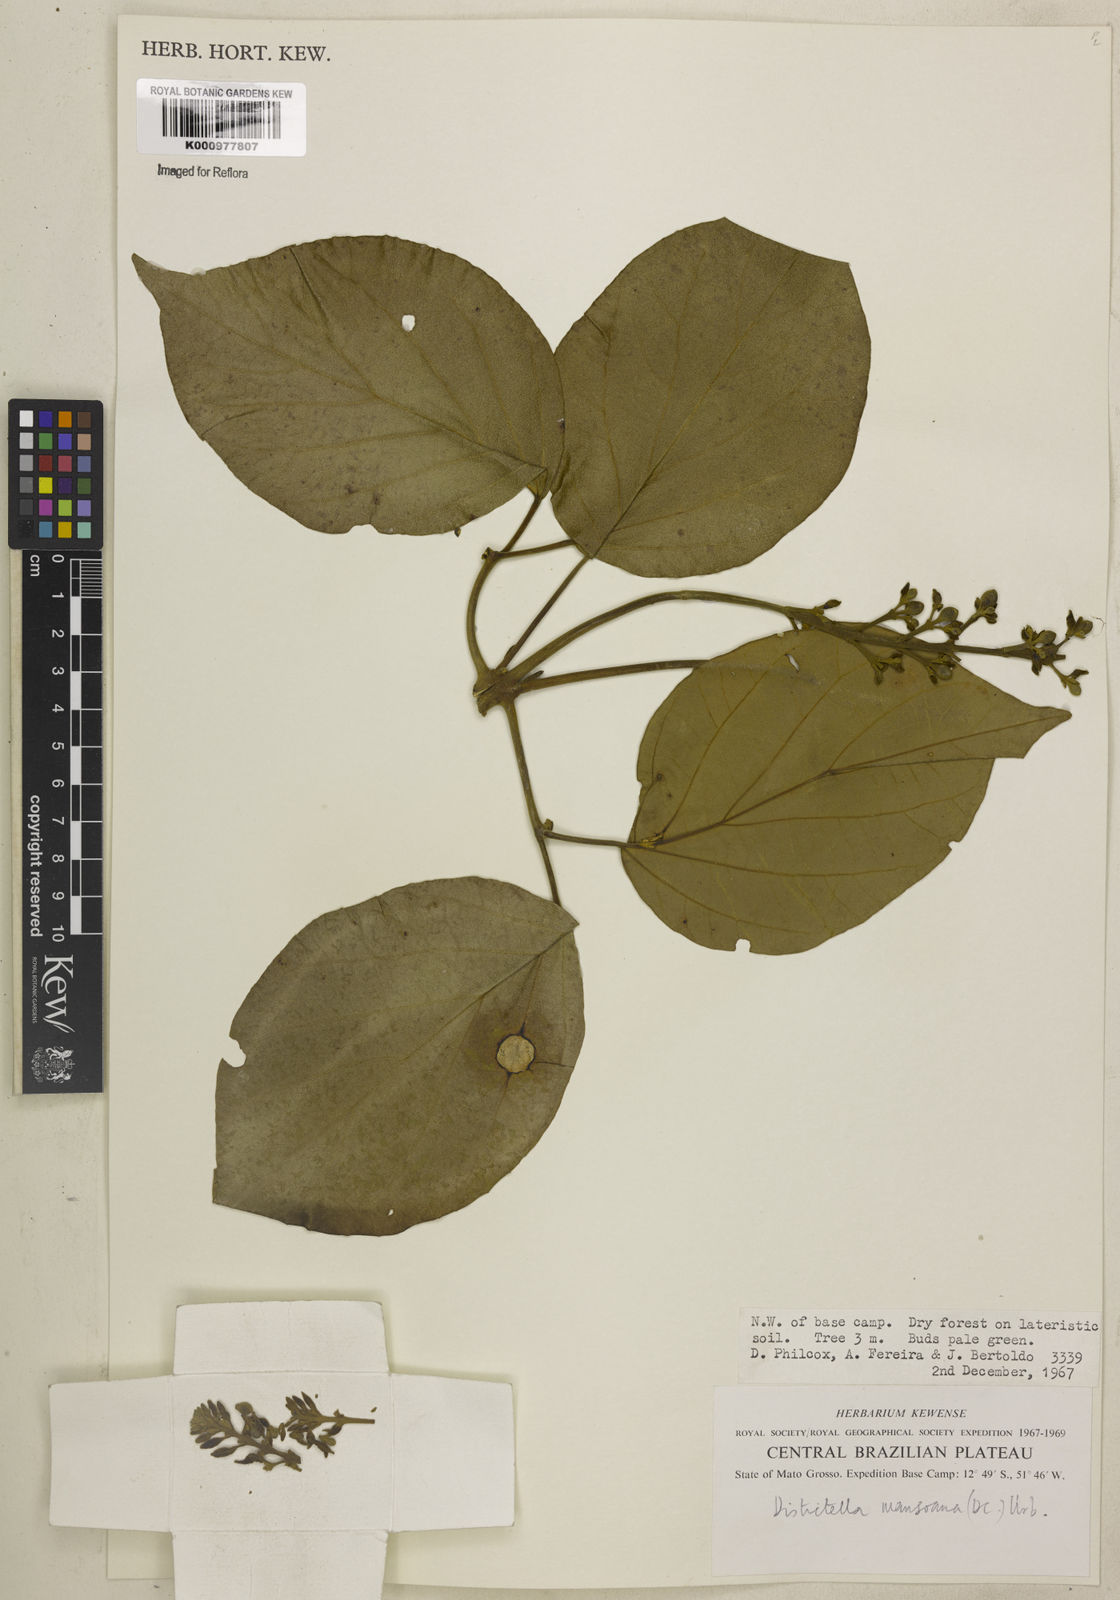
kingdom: Plantae
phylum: Tracheophyta
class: Magnoliopsida
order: Lamiales
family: Bignoniaceae
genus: Amphilophium
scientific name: Amphilophium mansoanum
